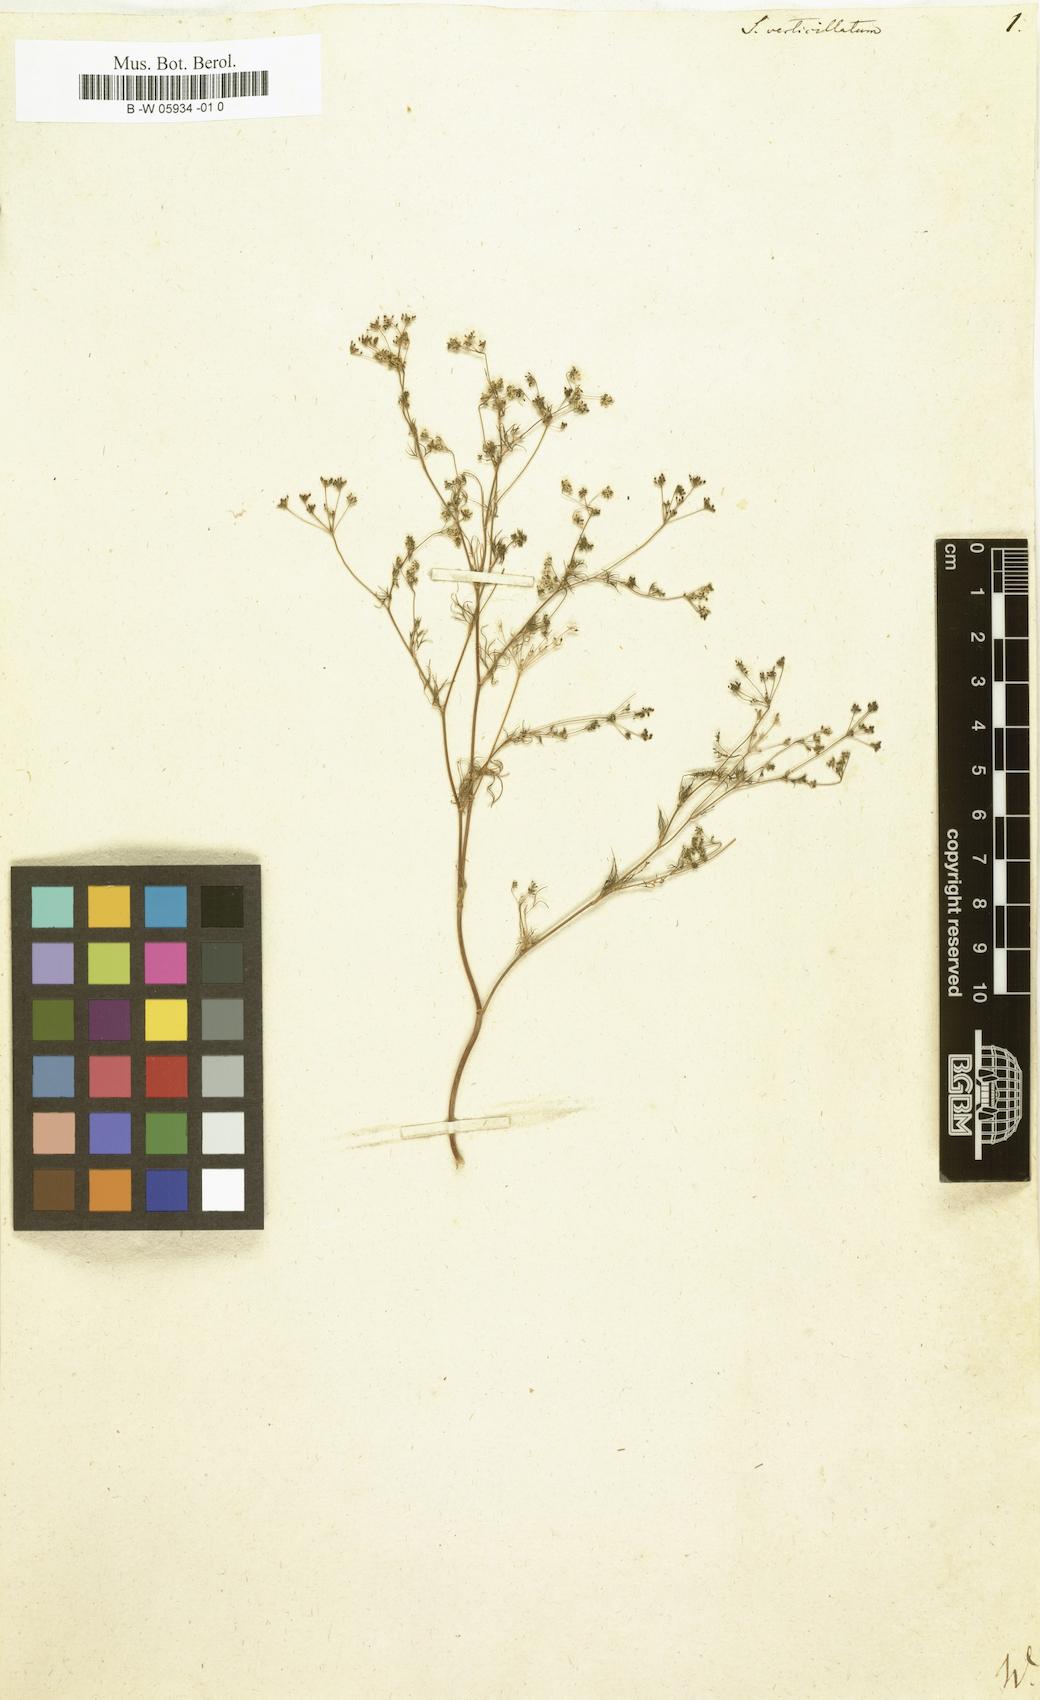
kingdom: Plantae
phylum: Tracheophyta
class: Magnoliopsida
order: Apiales
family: Apiaceae
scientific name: Apiaceae
